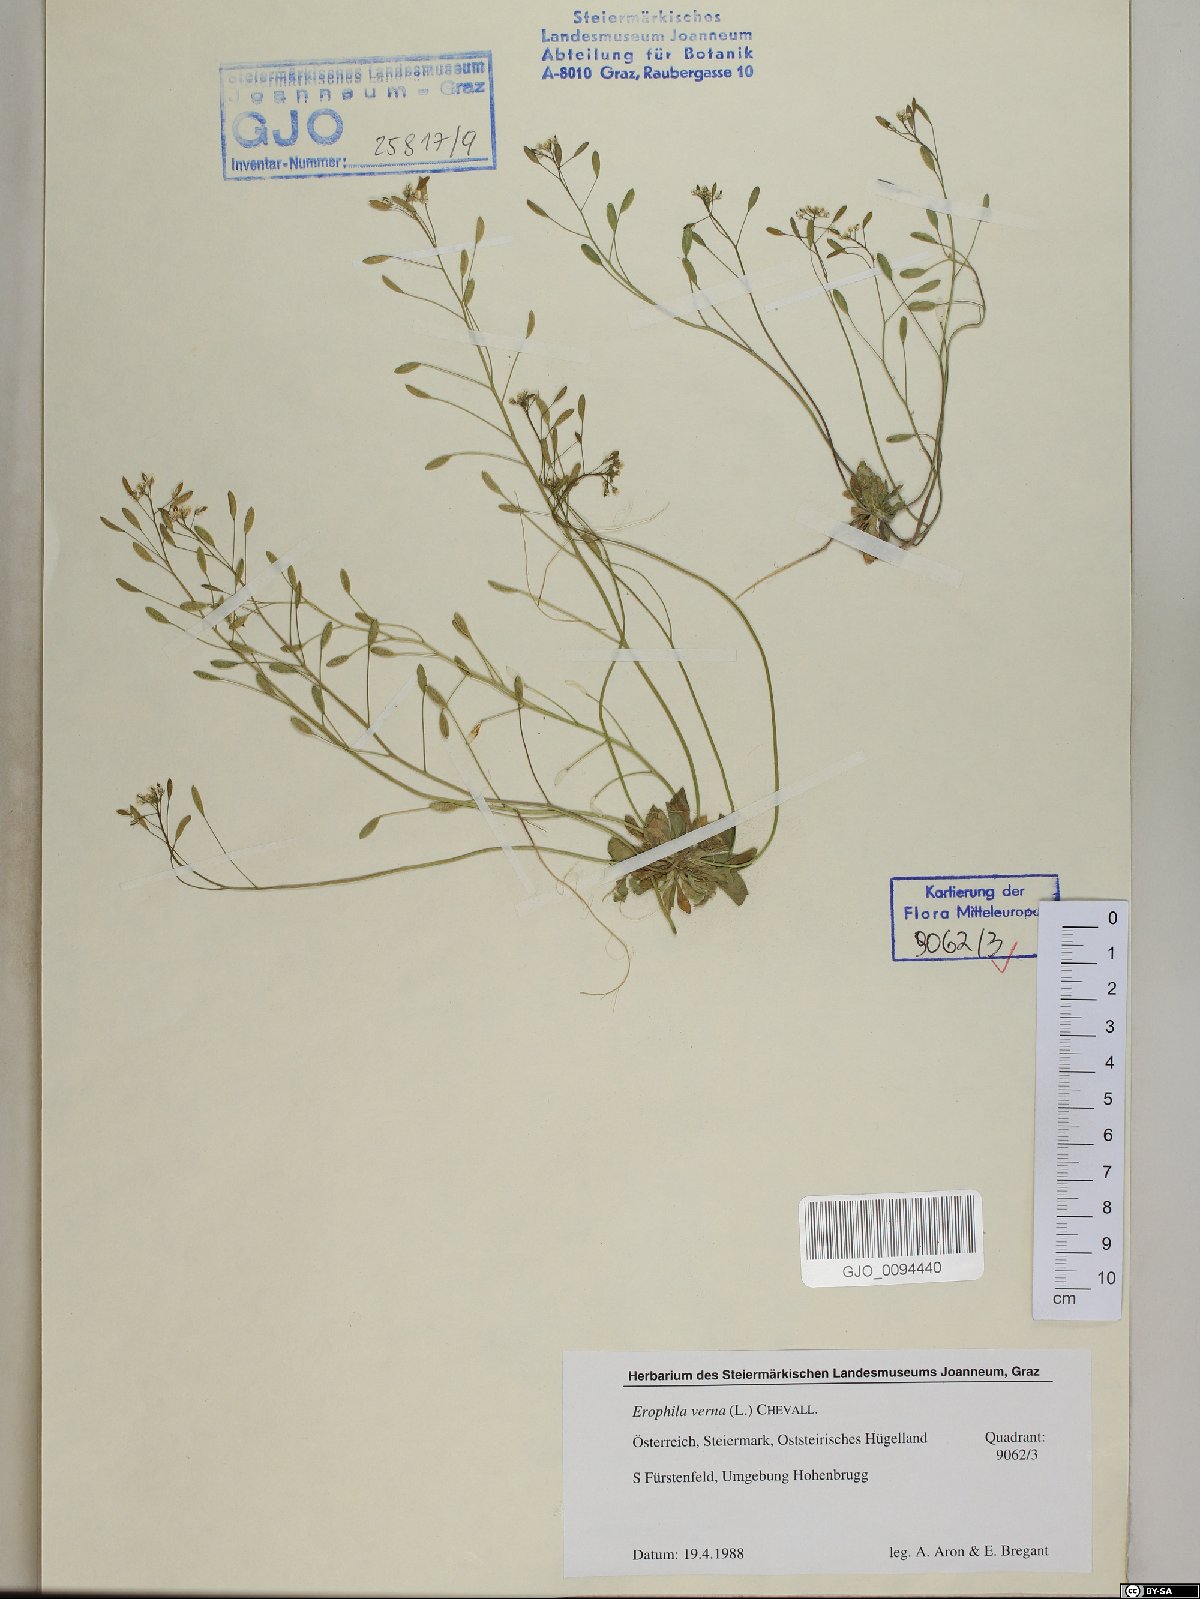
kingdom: Plantae
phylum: Tracheophyta
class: Magnoliopsida
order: Brassicales
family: Brassicaceae
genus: Draba
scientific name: Draba verna
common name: Spring draba
